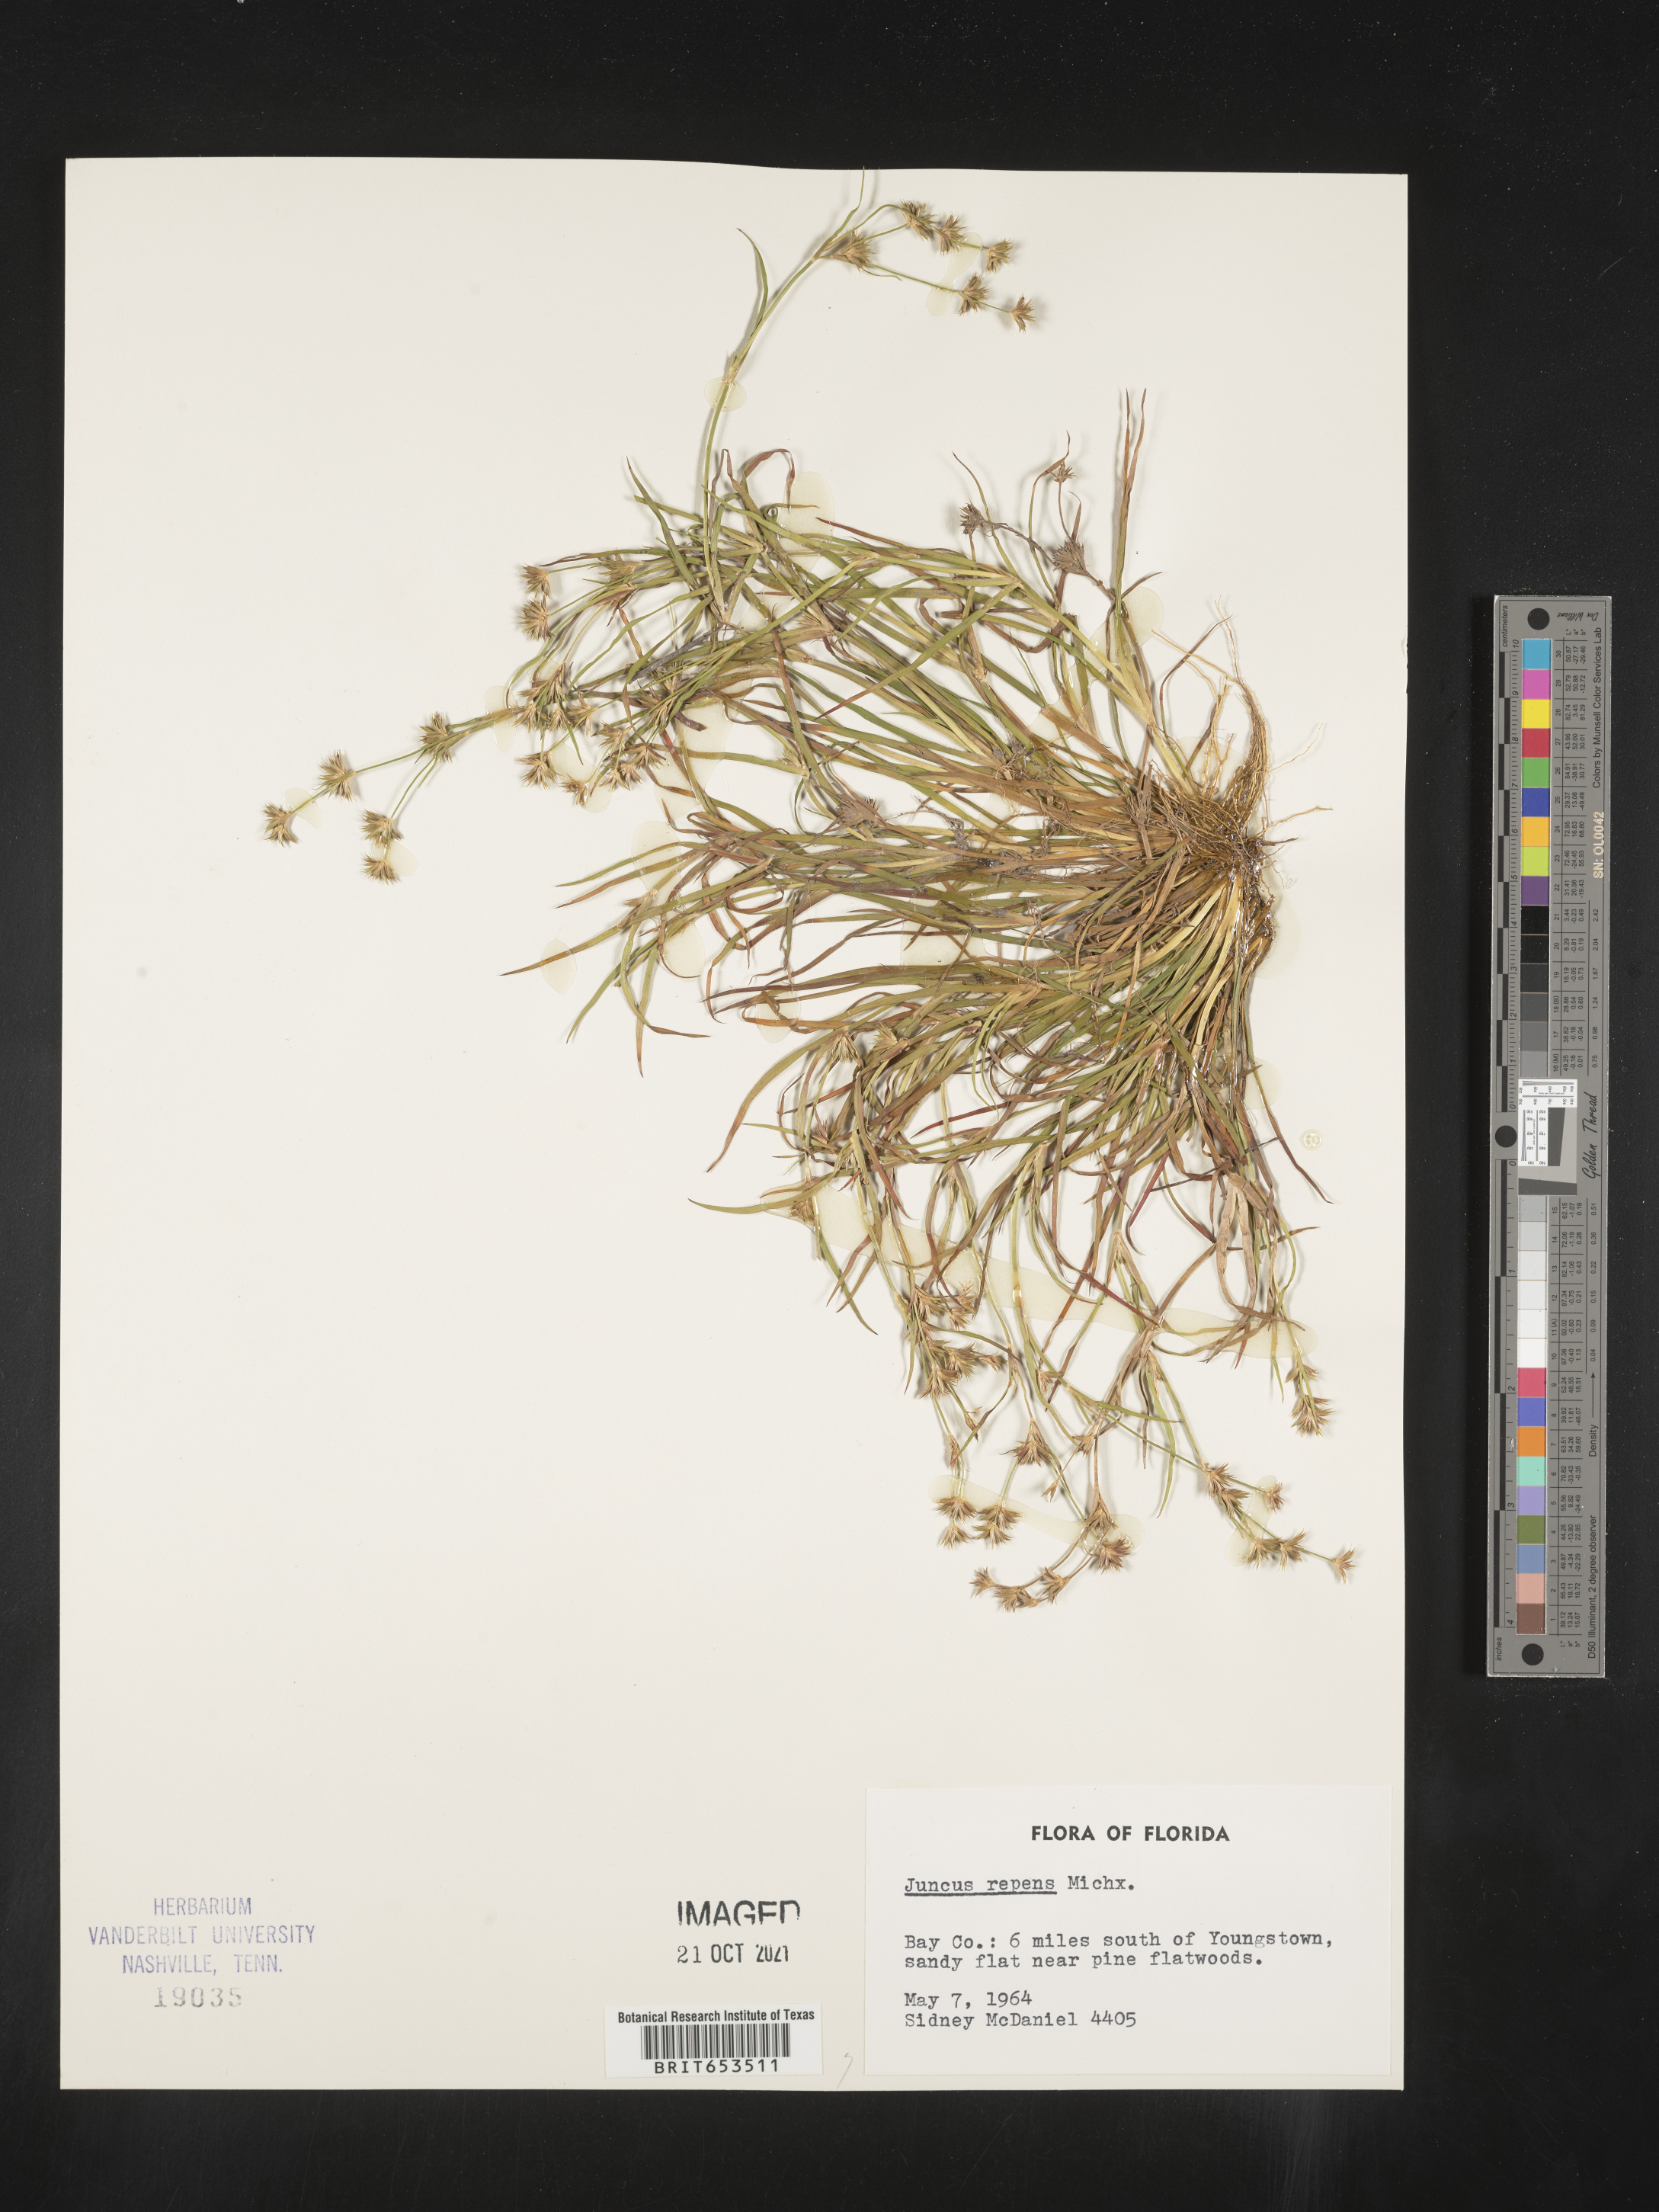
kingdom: Plantae
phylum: Tracheophyta
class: Liliopsida
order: Poales
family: Juncaceae
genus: Juncus
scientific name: Juncus repens
